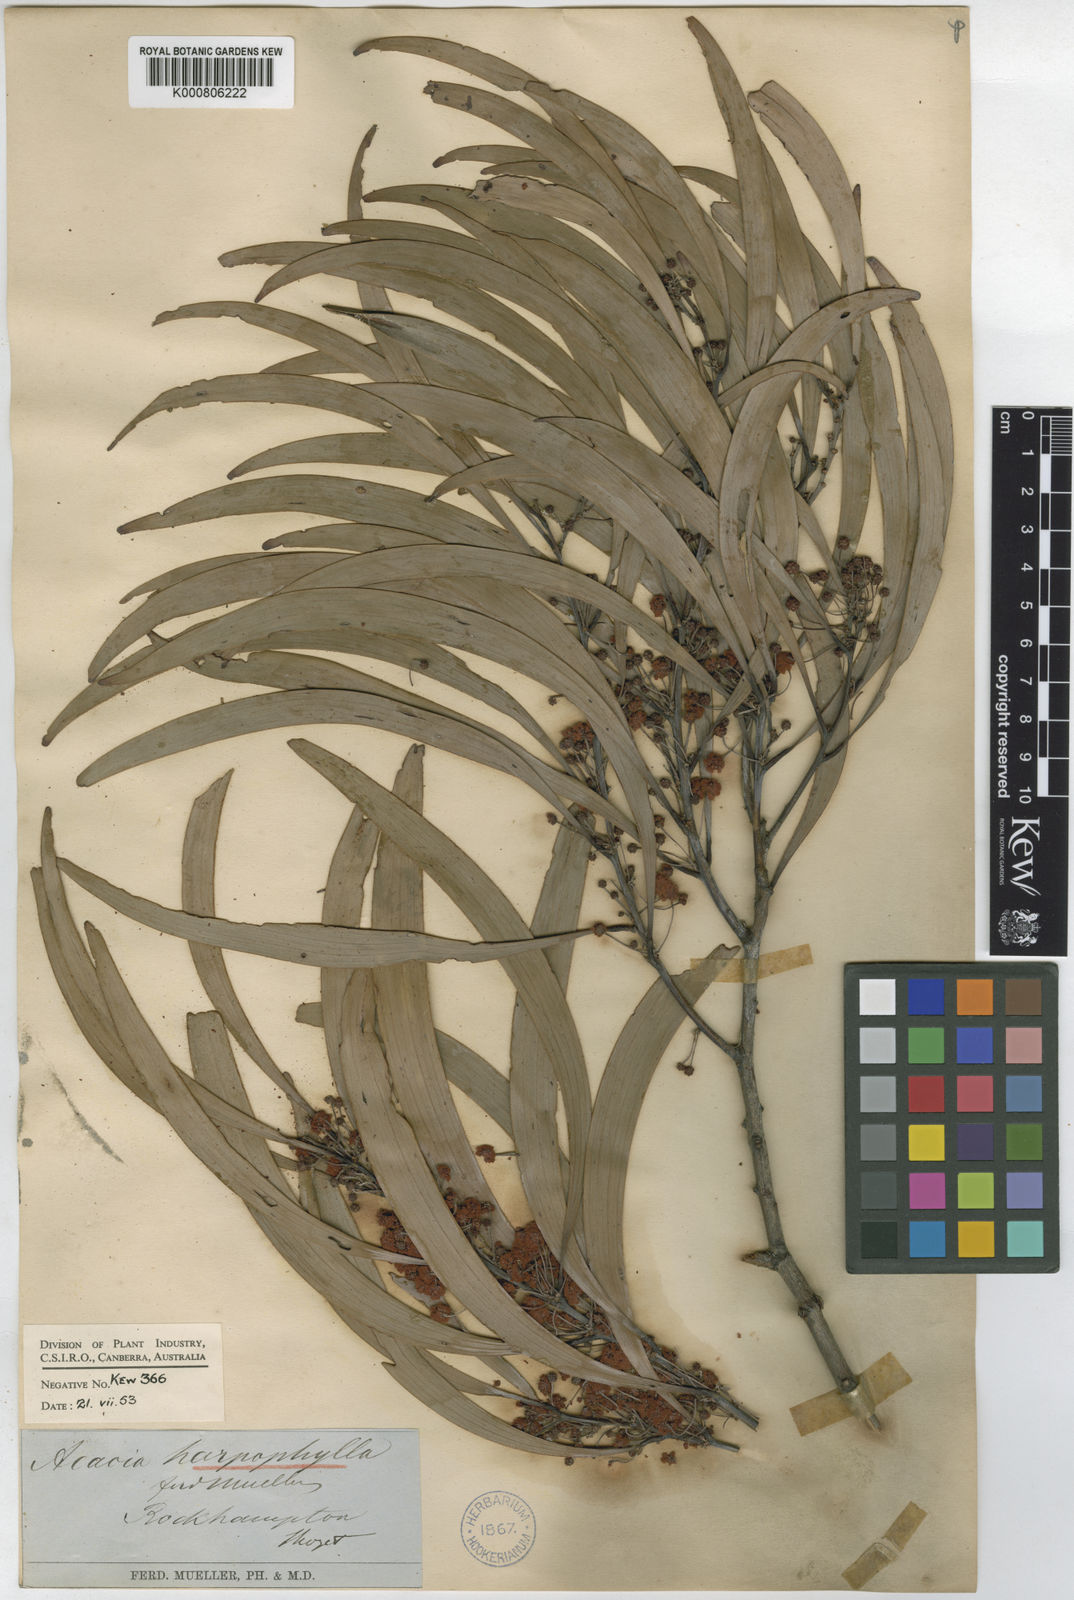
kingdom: Plantae
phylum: Tracheophyta
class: Magnoliopsida
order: Fabales
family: Fabaceae
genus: Acacia
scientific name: Acacia
